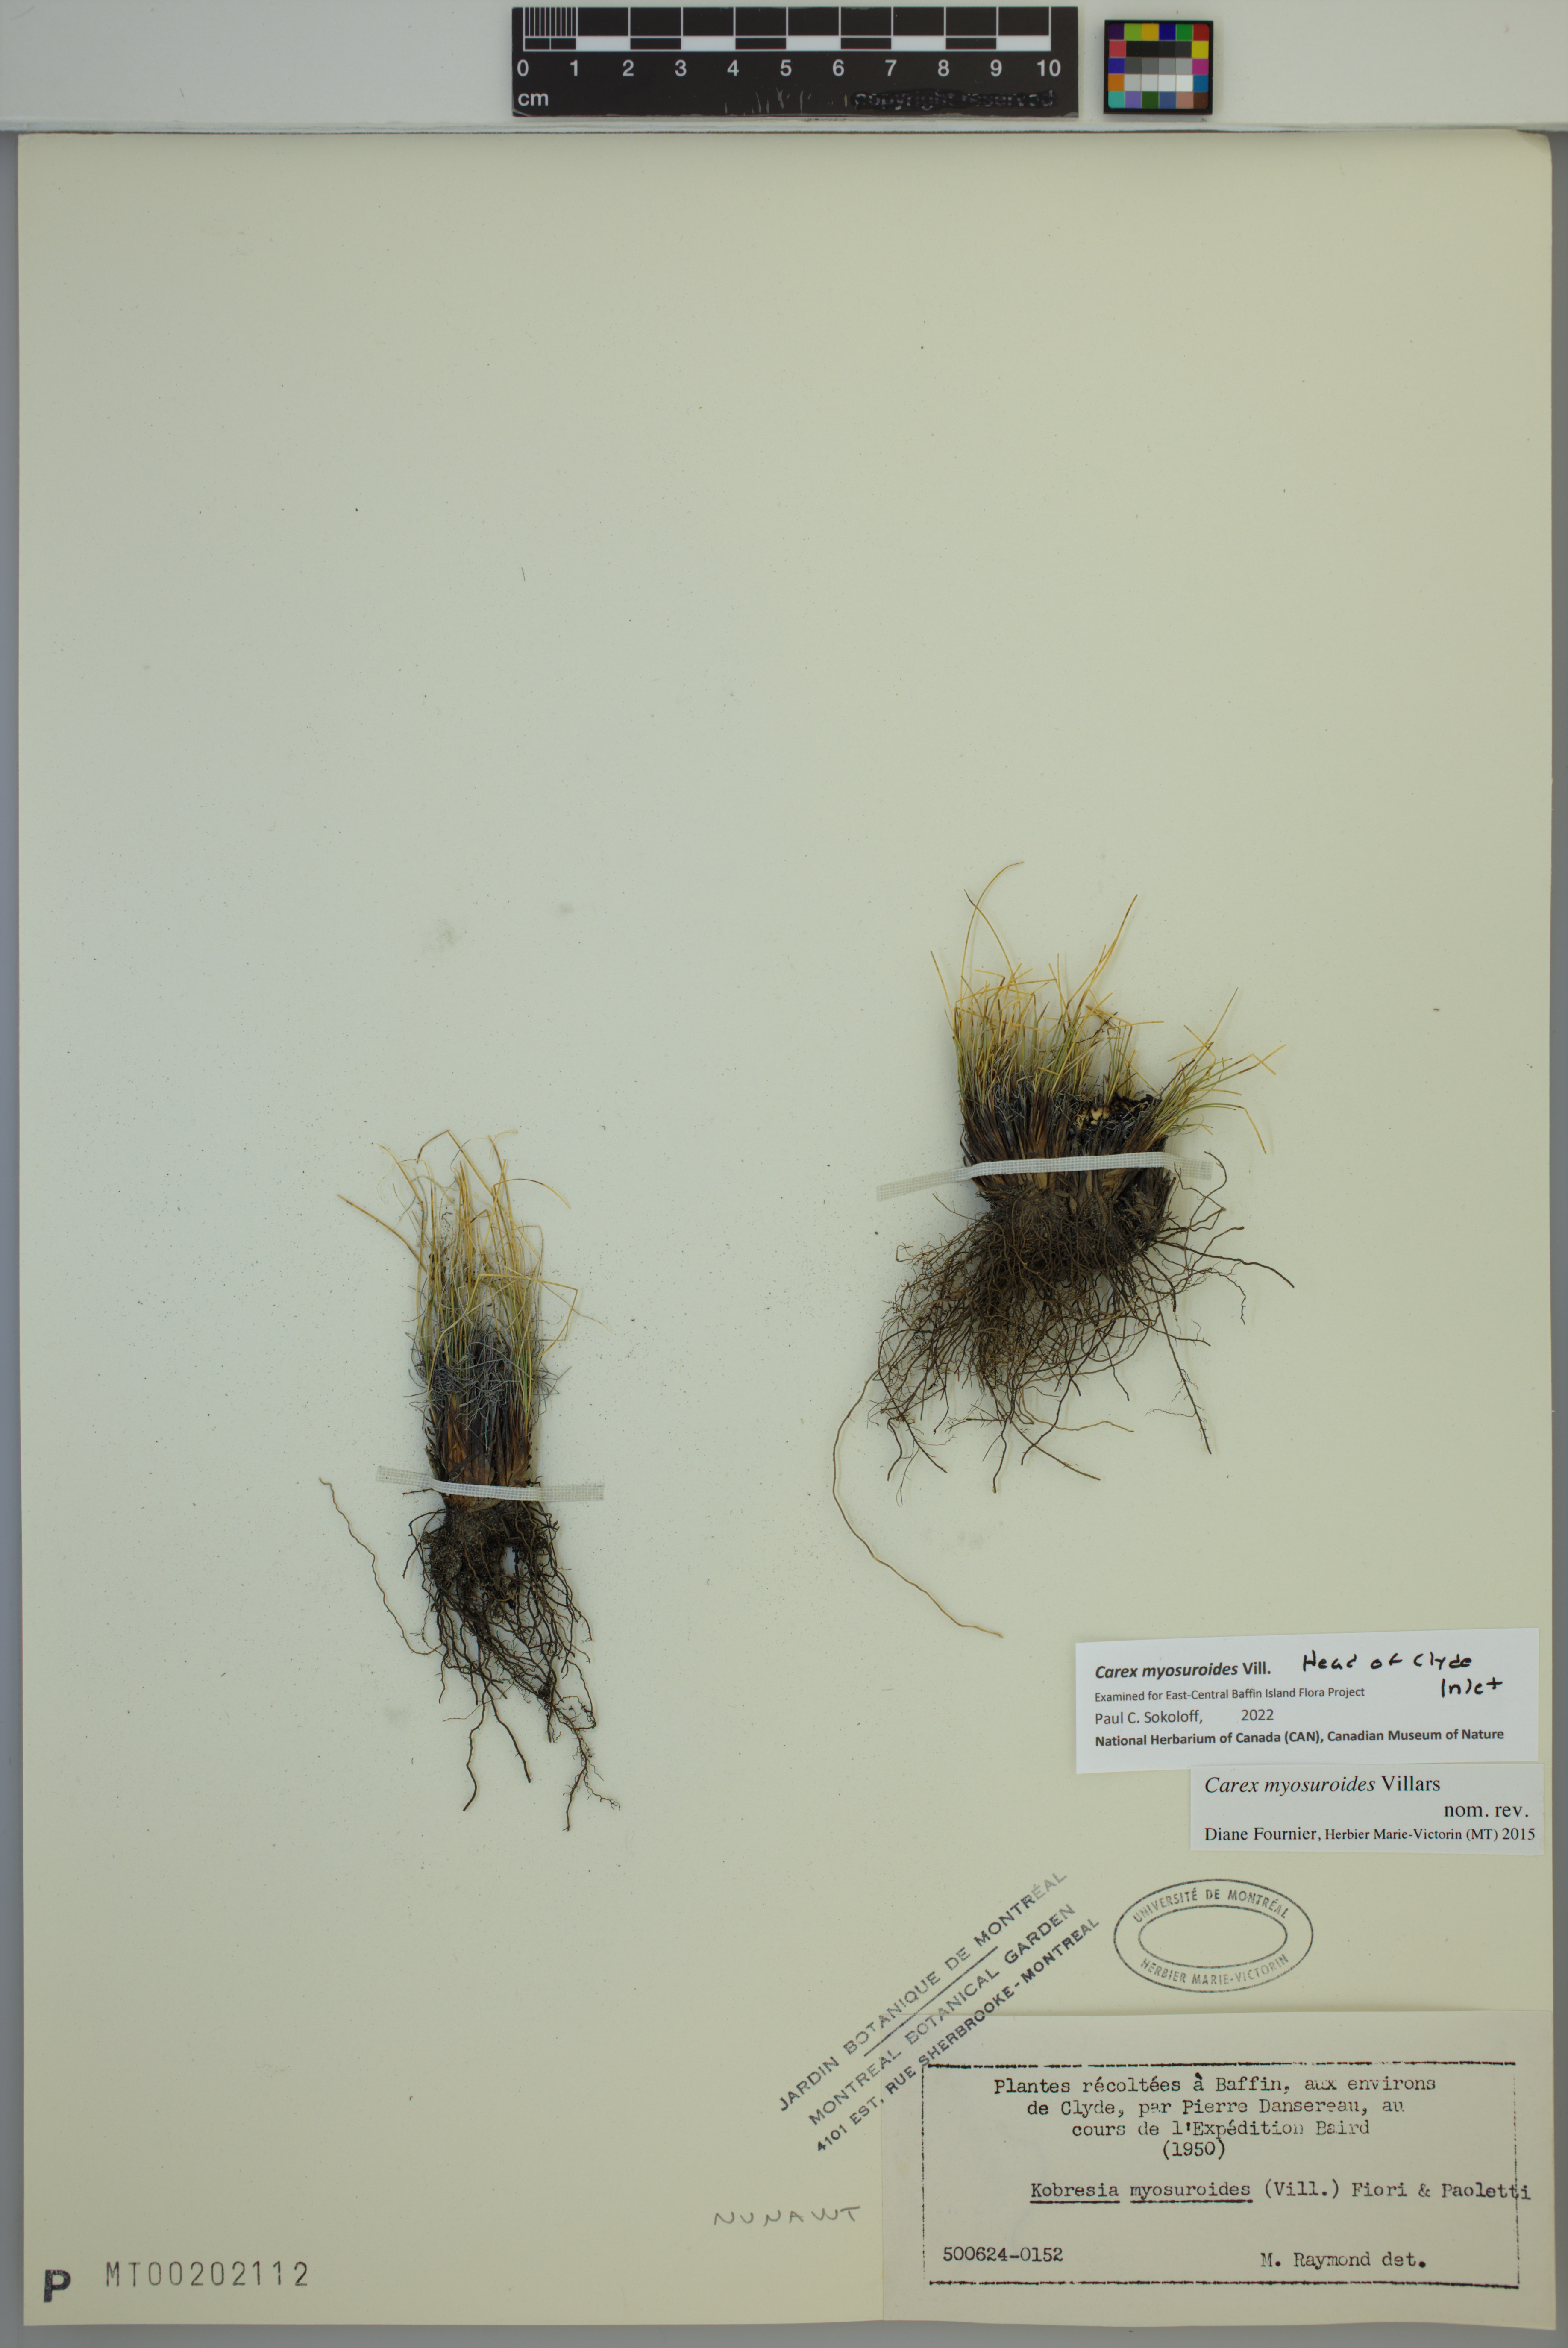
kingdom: Plantae
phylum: Tracheophyta
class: Liliopsida
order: Poales
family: Cyperaceae
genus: Carex
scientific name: Carex myosuroides
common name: Bellard's bog sedge
